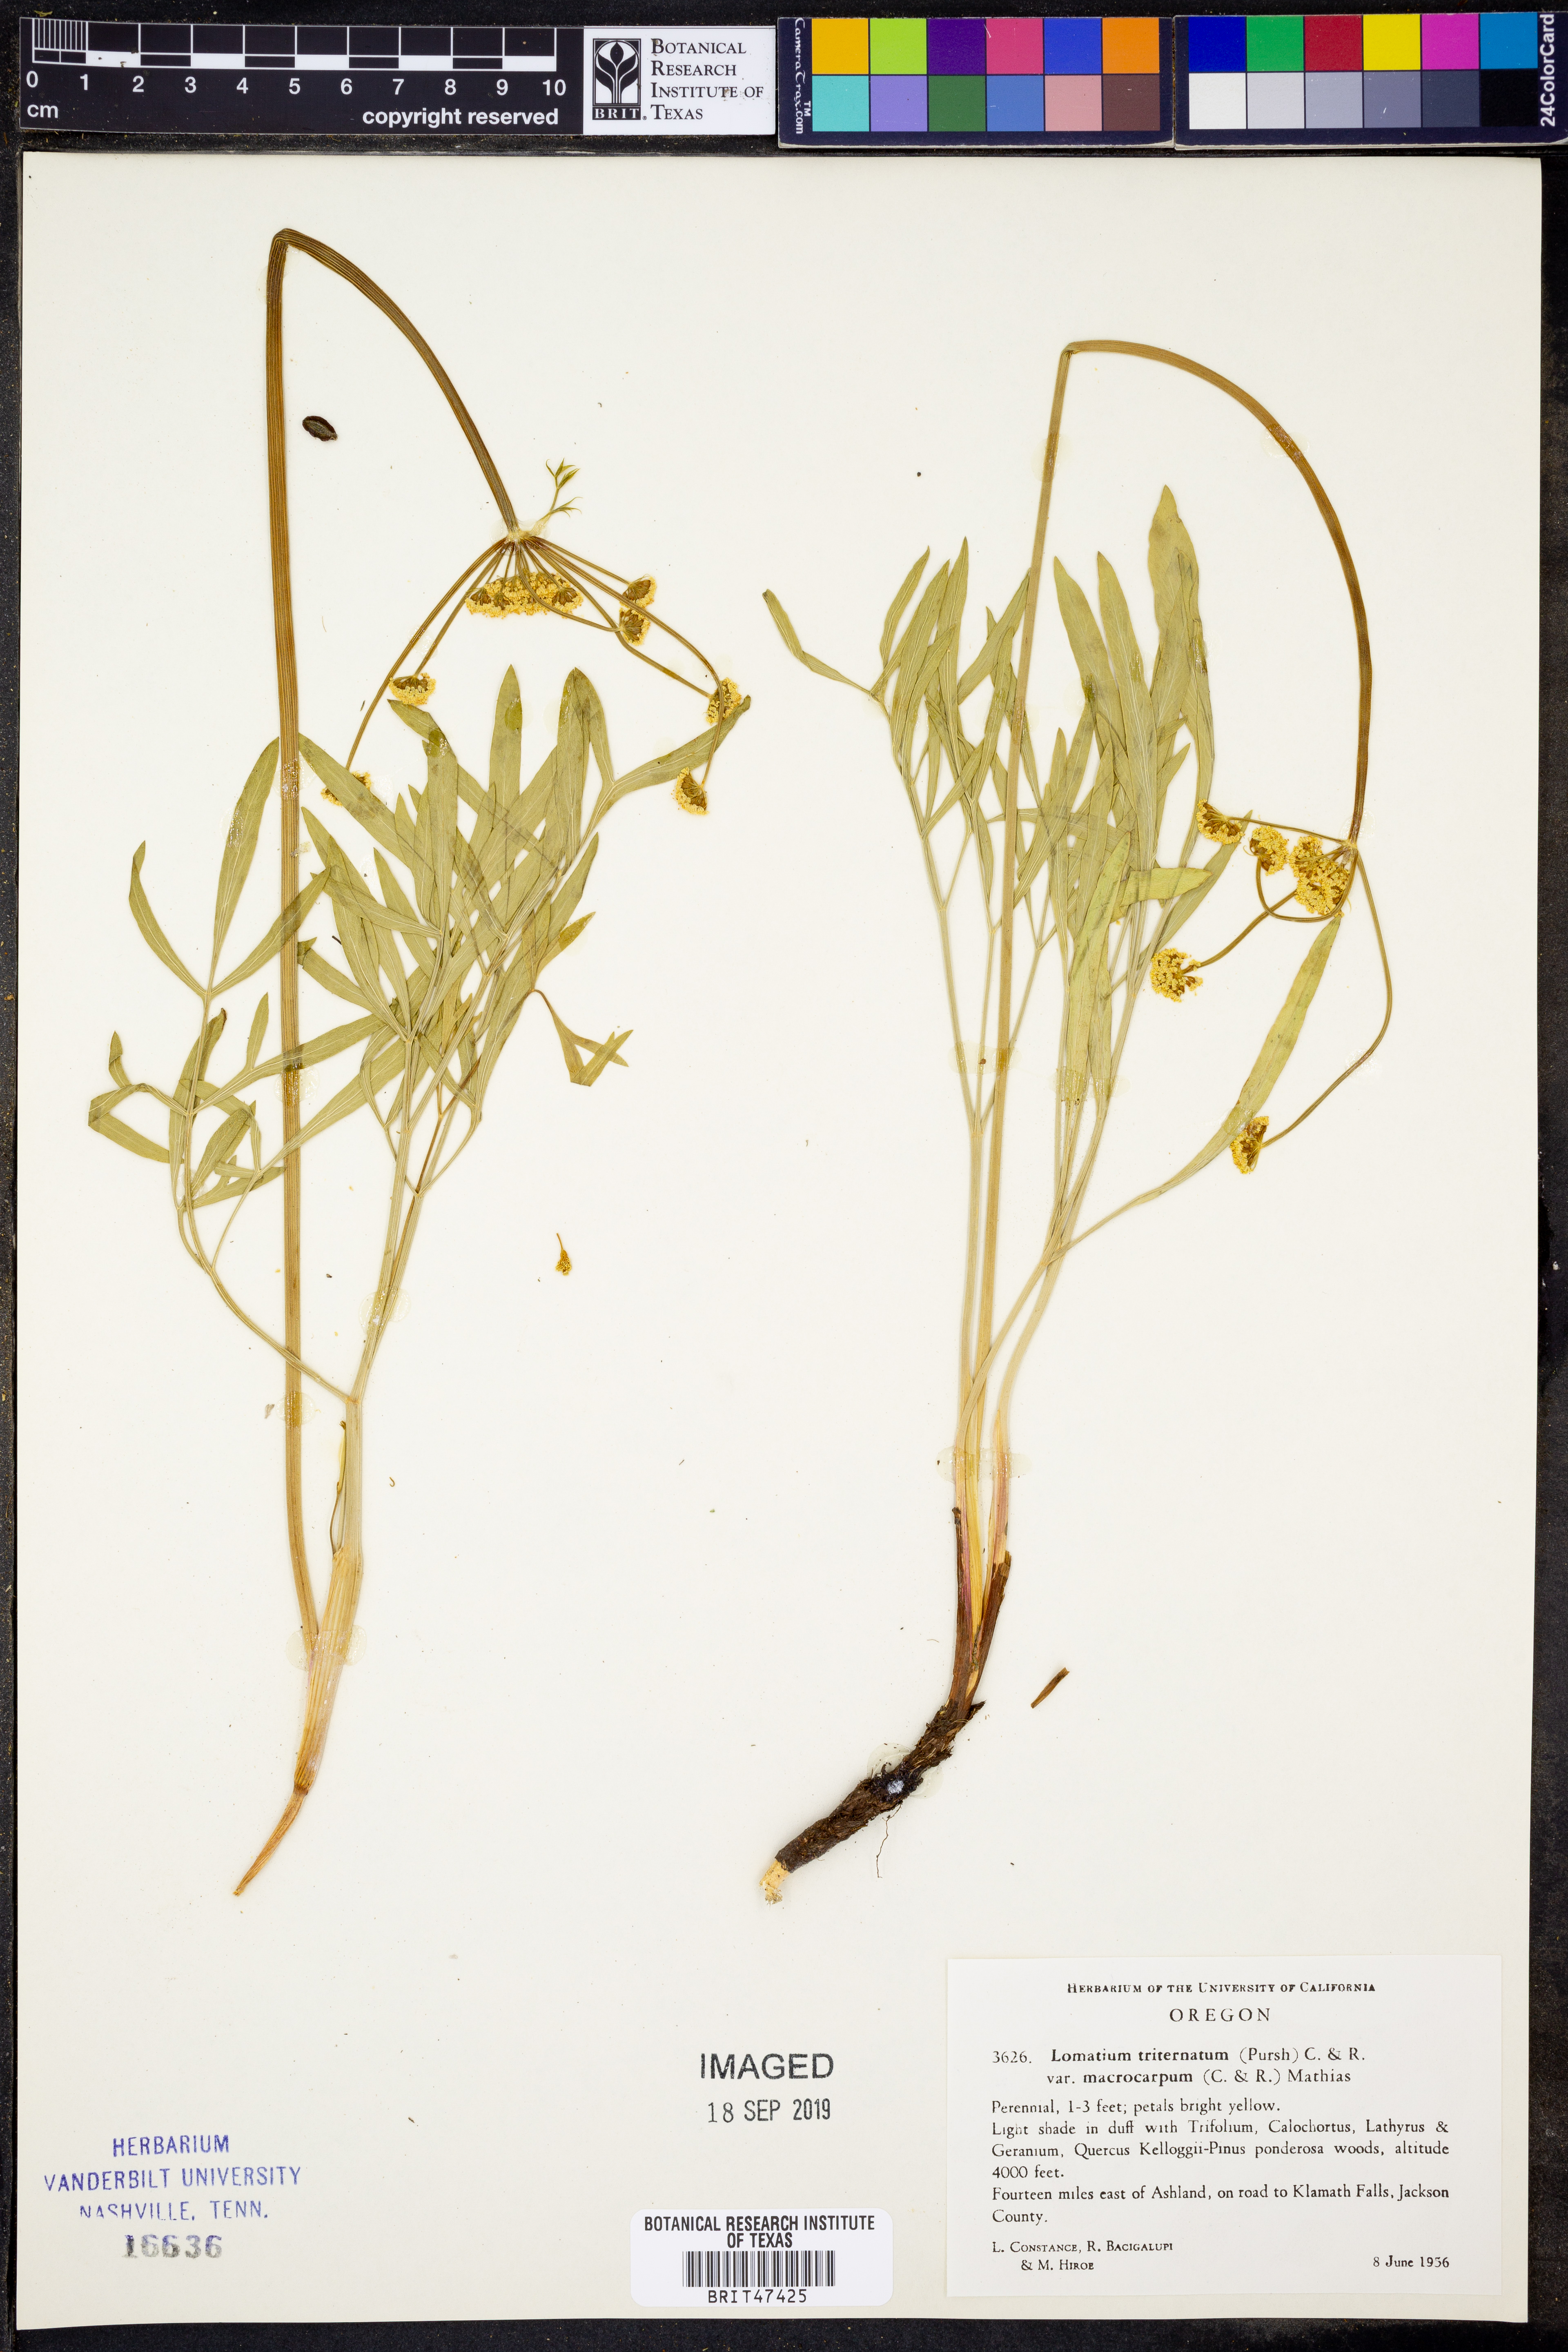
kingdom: Plantae
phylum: Tracheophyta
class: Magnoliopsida
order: Apiales
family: Apiaceae
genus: Lomatium
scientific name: Lomatium triternatum
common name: Ternate lomatium
